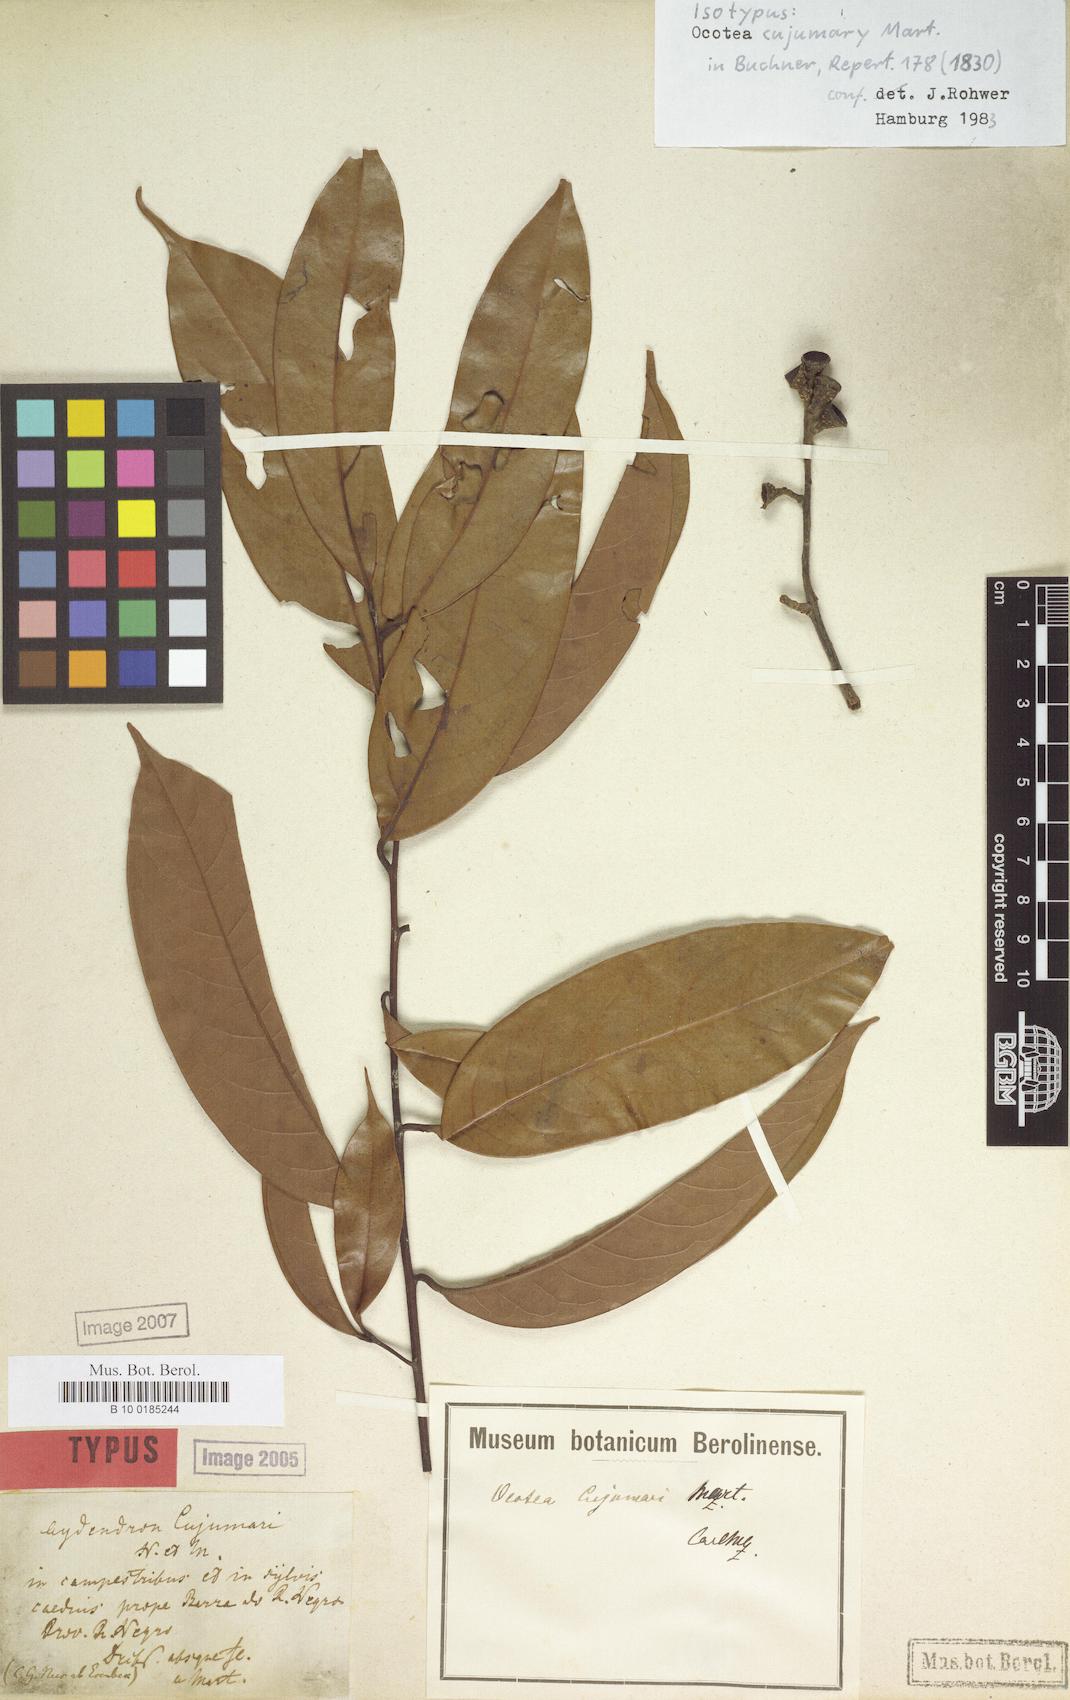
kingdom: Plantae
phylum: Tracheophyta
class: Magnoliopsida
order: Laurales
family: Lauraceae
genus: Ocotea
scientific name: Ocotea cujumary
